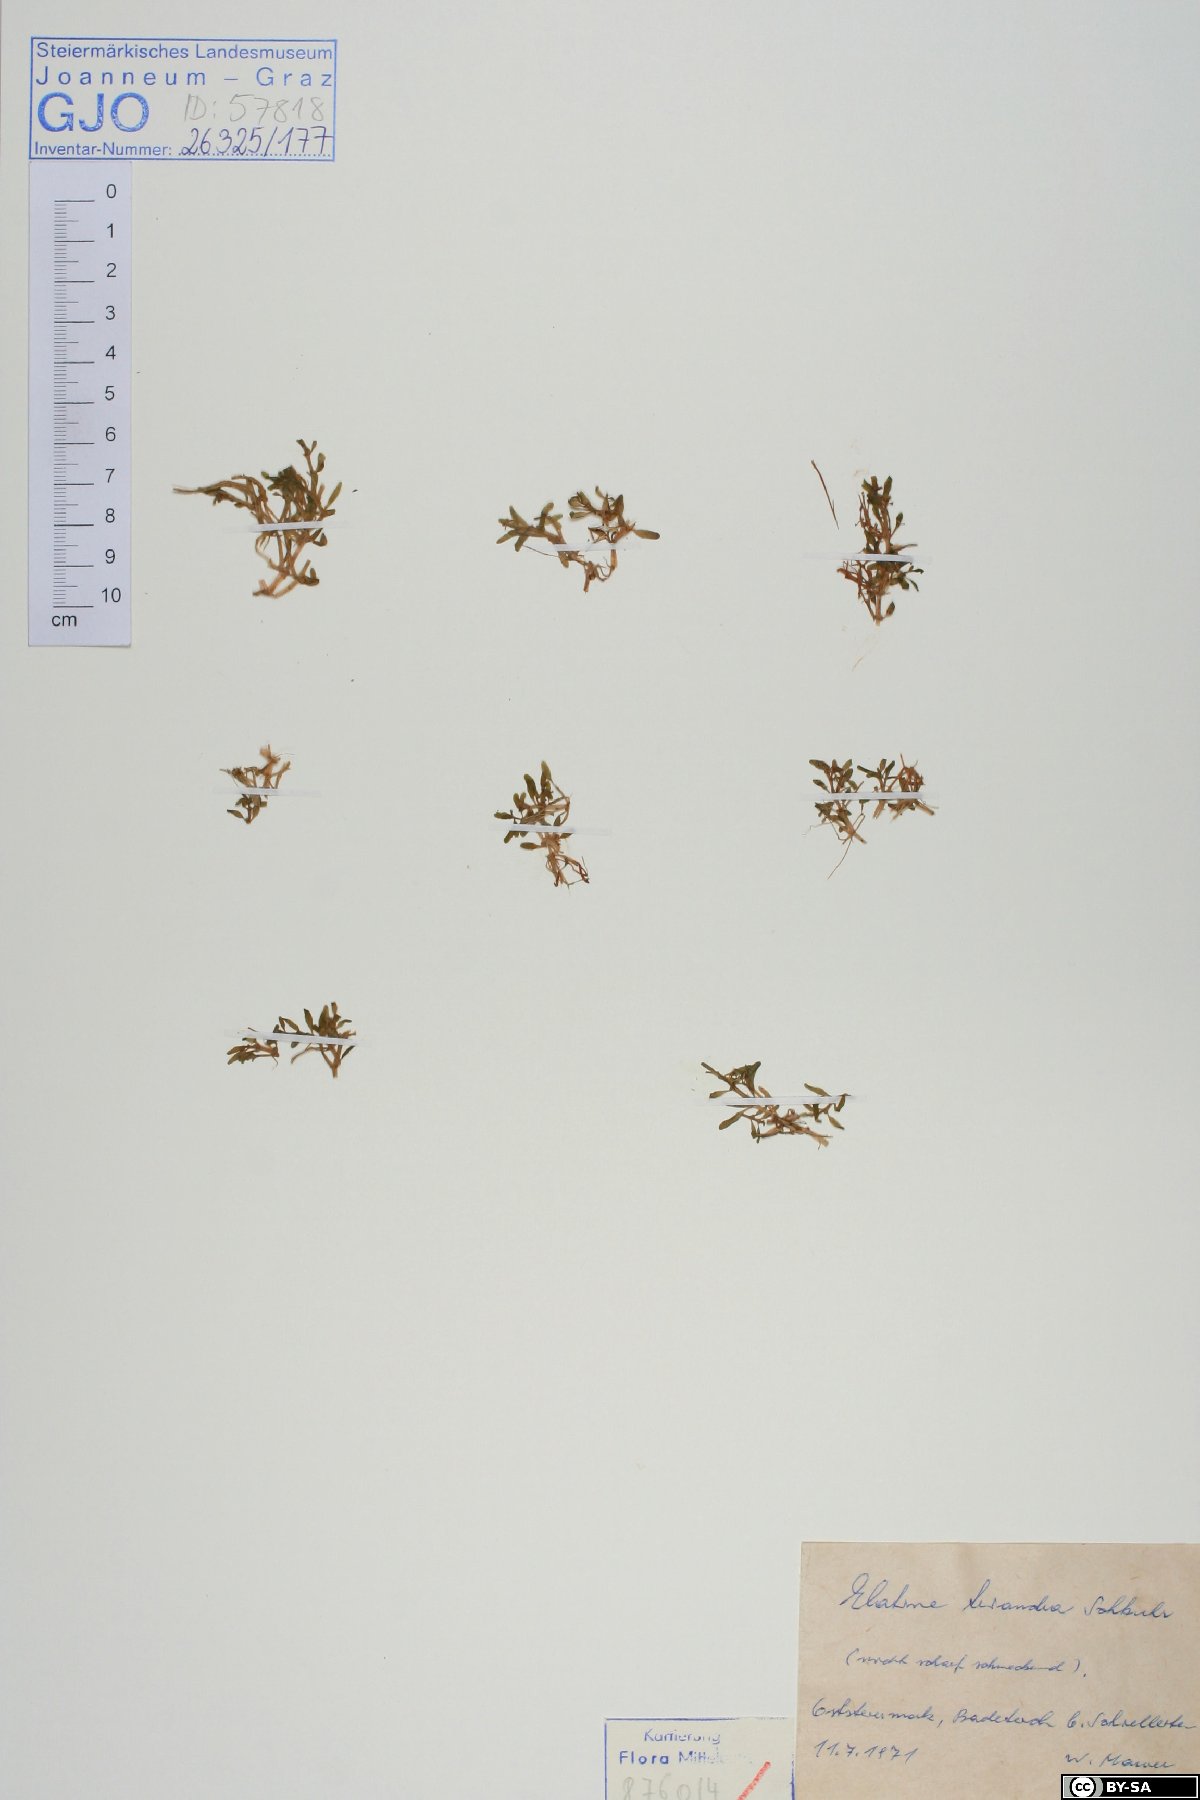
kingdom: Plantae
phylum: Tracheophyta
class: Magnoliopsida
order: Malpighiales
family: Elatinaceae
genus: Elatine
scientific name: Elatine triandra
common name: Three-stamened waterwort
